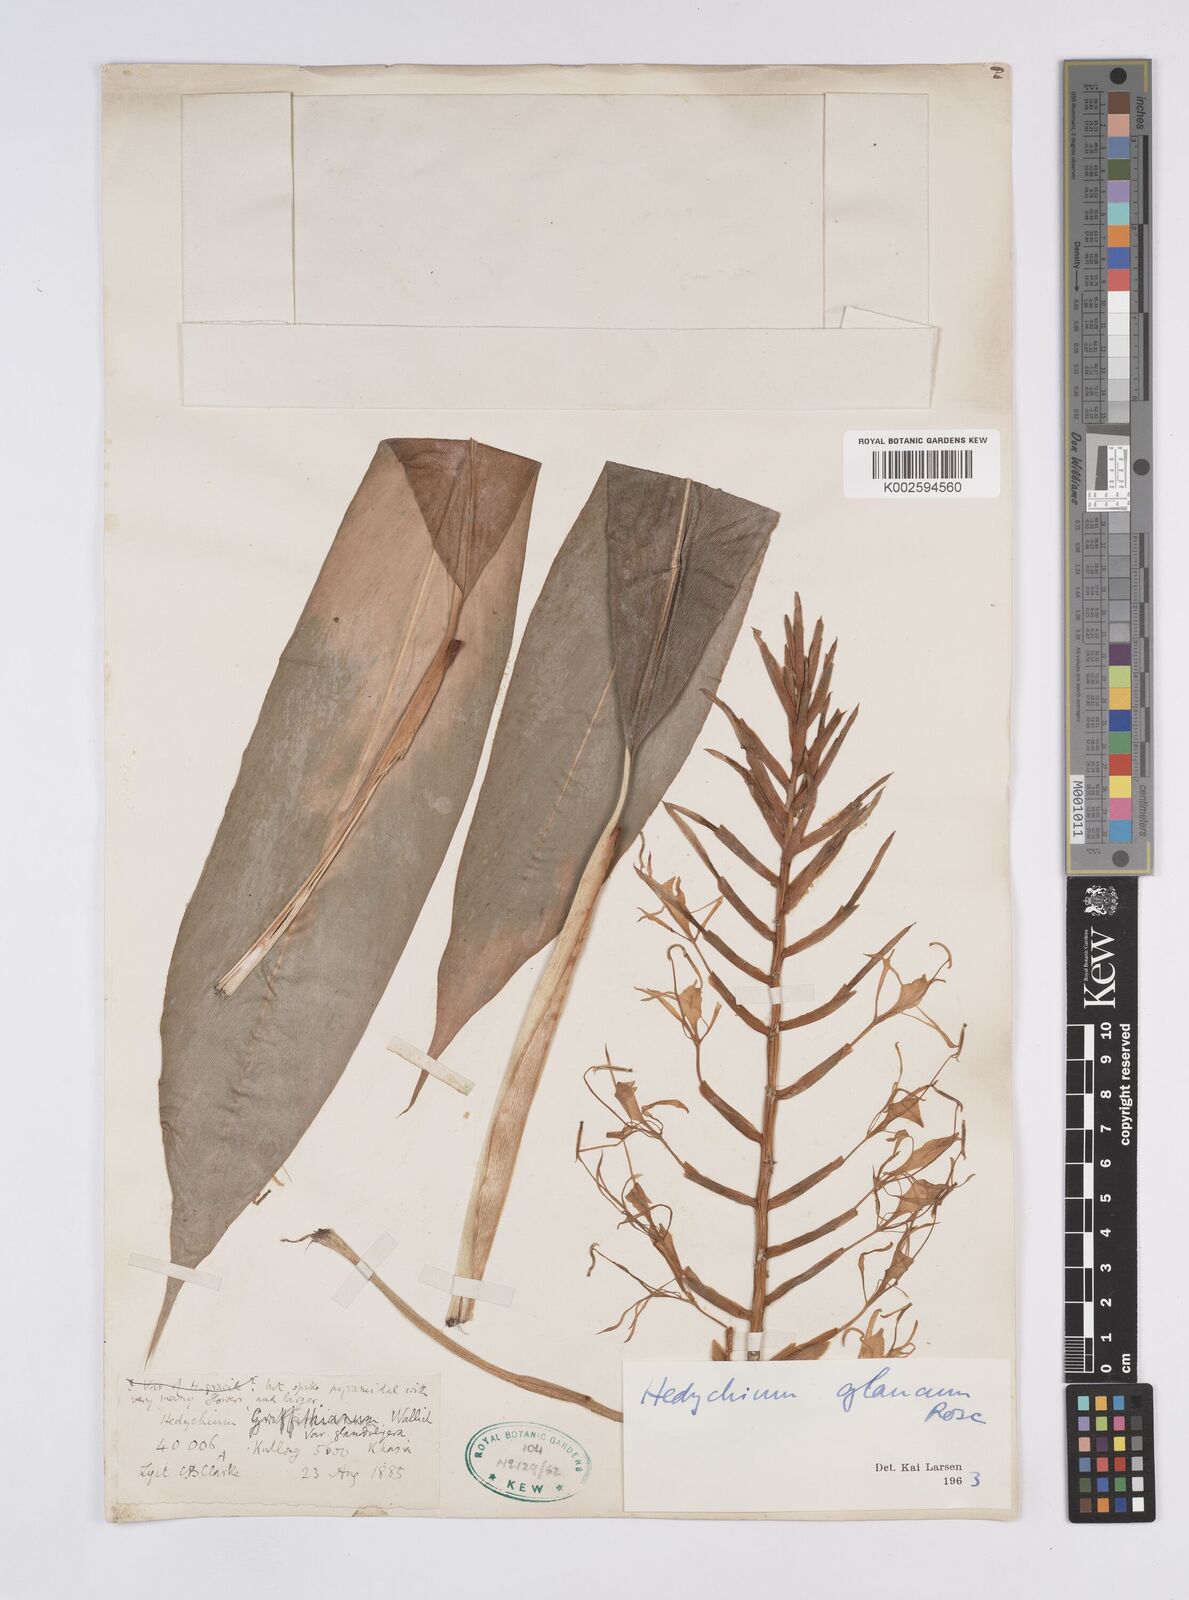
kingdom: Plantae
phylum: Tracheophyta
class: Liliopsida
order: Zingiberales
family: Zingiberaceae
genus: Hedychium
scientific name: Hedychium glaucum
